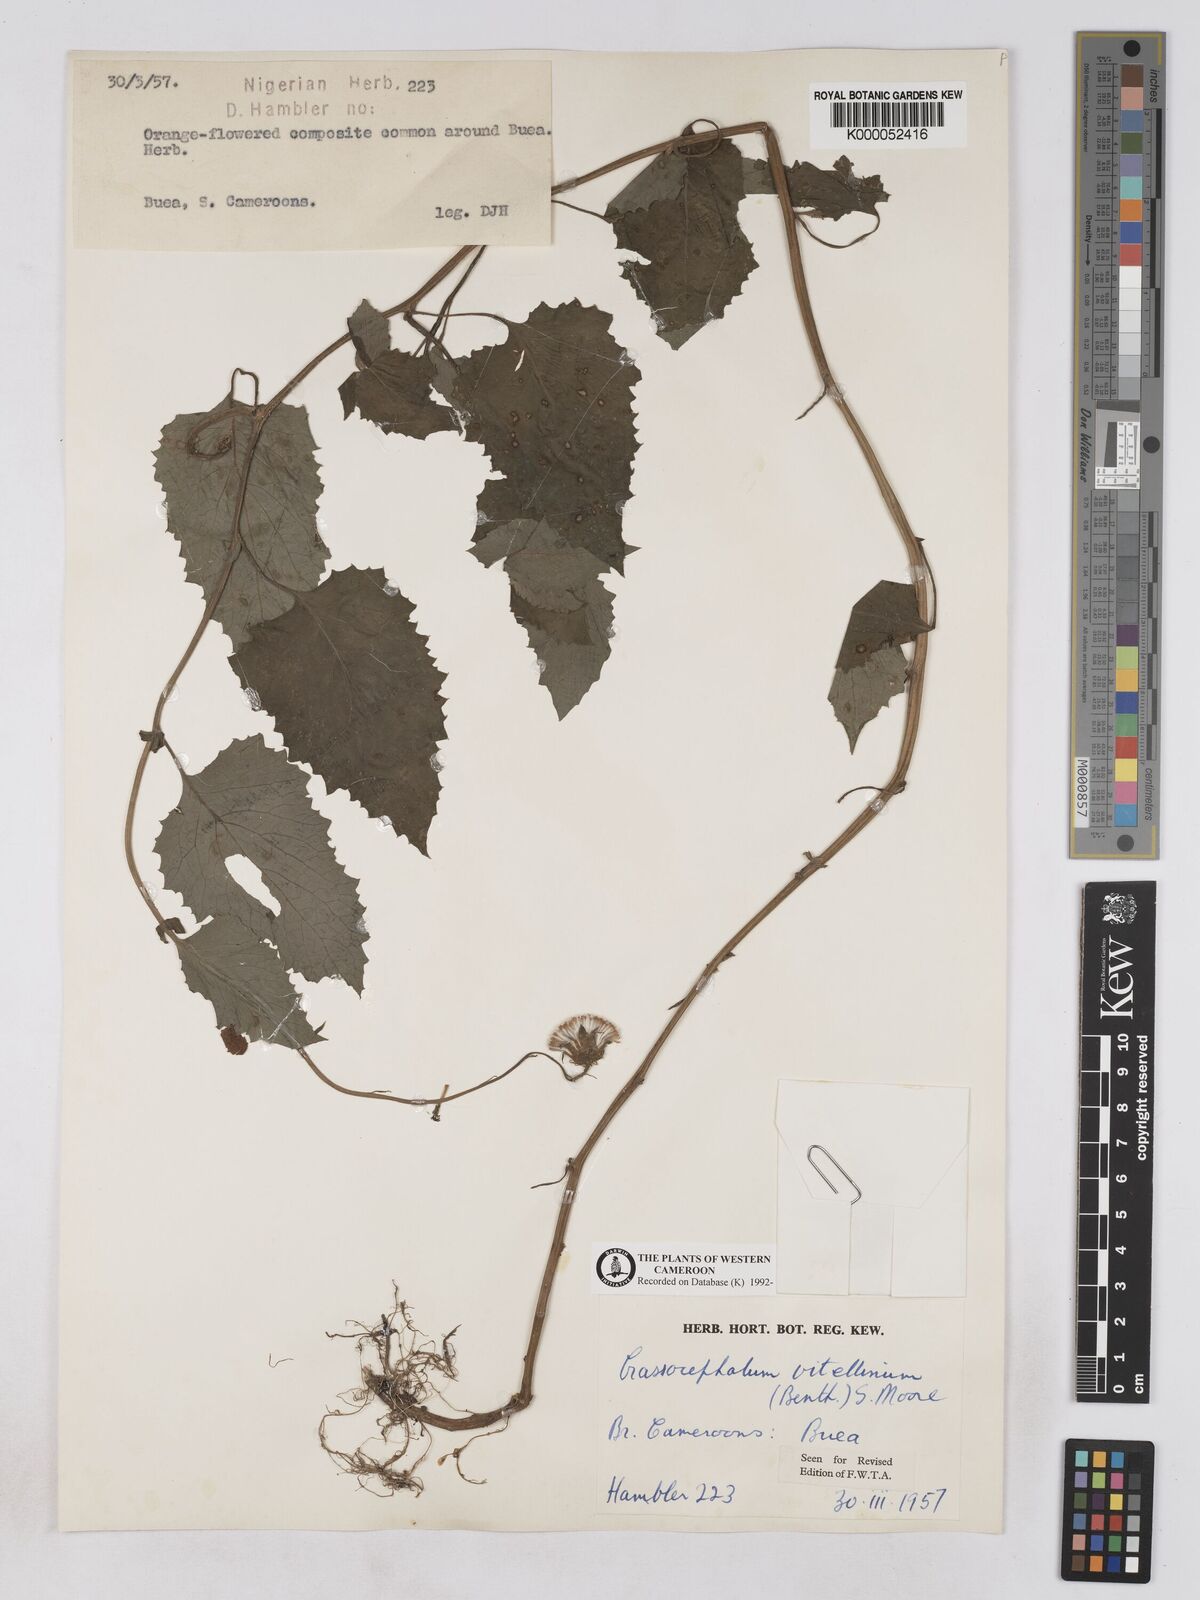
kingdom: Plantae
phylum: Tracheophyta
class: Magnoliopsida
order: Asterales
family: Asteraceae
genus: Crassocephalum
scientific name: Crassocephalum vitellinum
